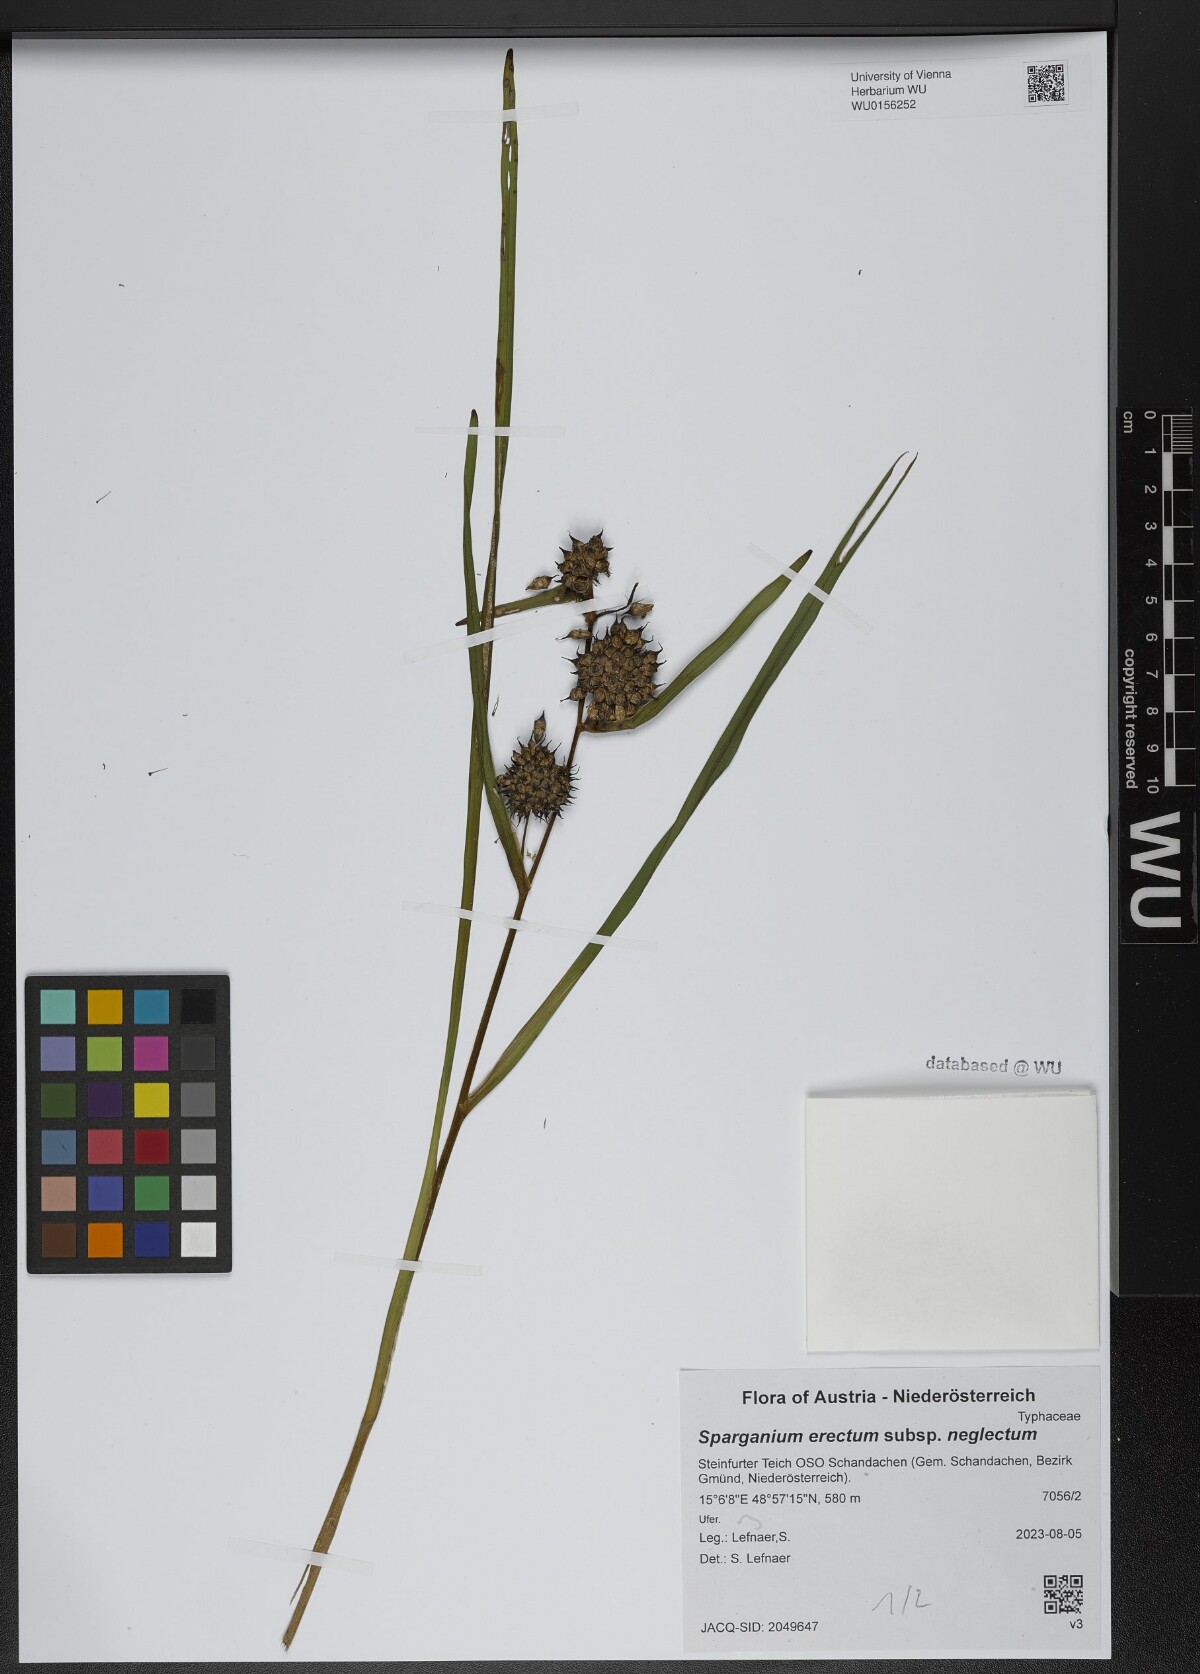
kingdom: Plantae
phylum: Tracheophyta
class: Liliopsida
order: Poales
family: Typhaceae
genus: Sparganium
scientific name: Sparganium erectum
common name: Branched bur-reed
